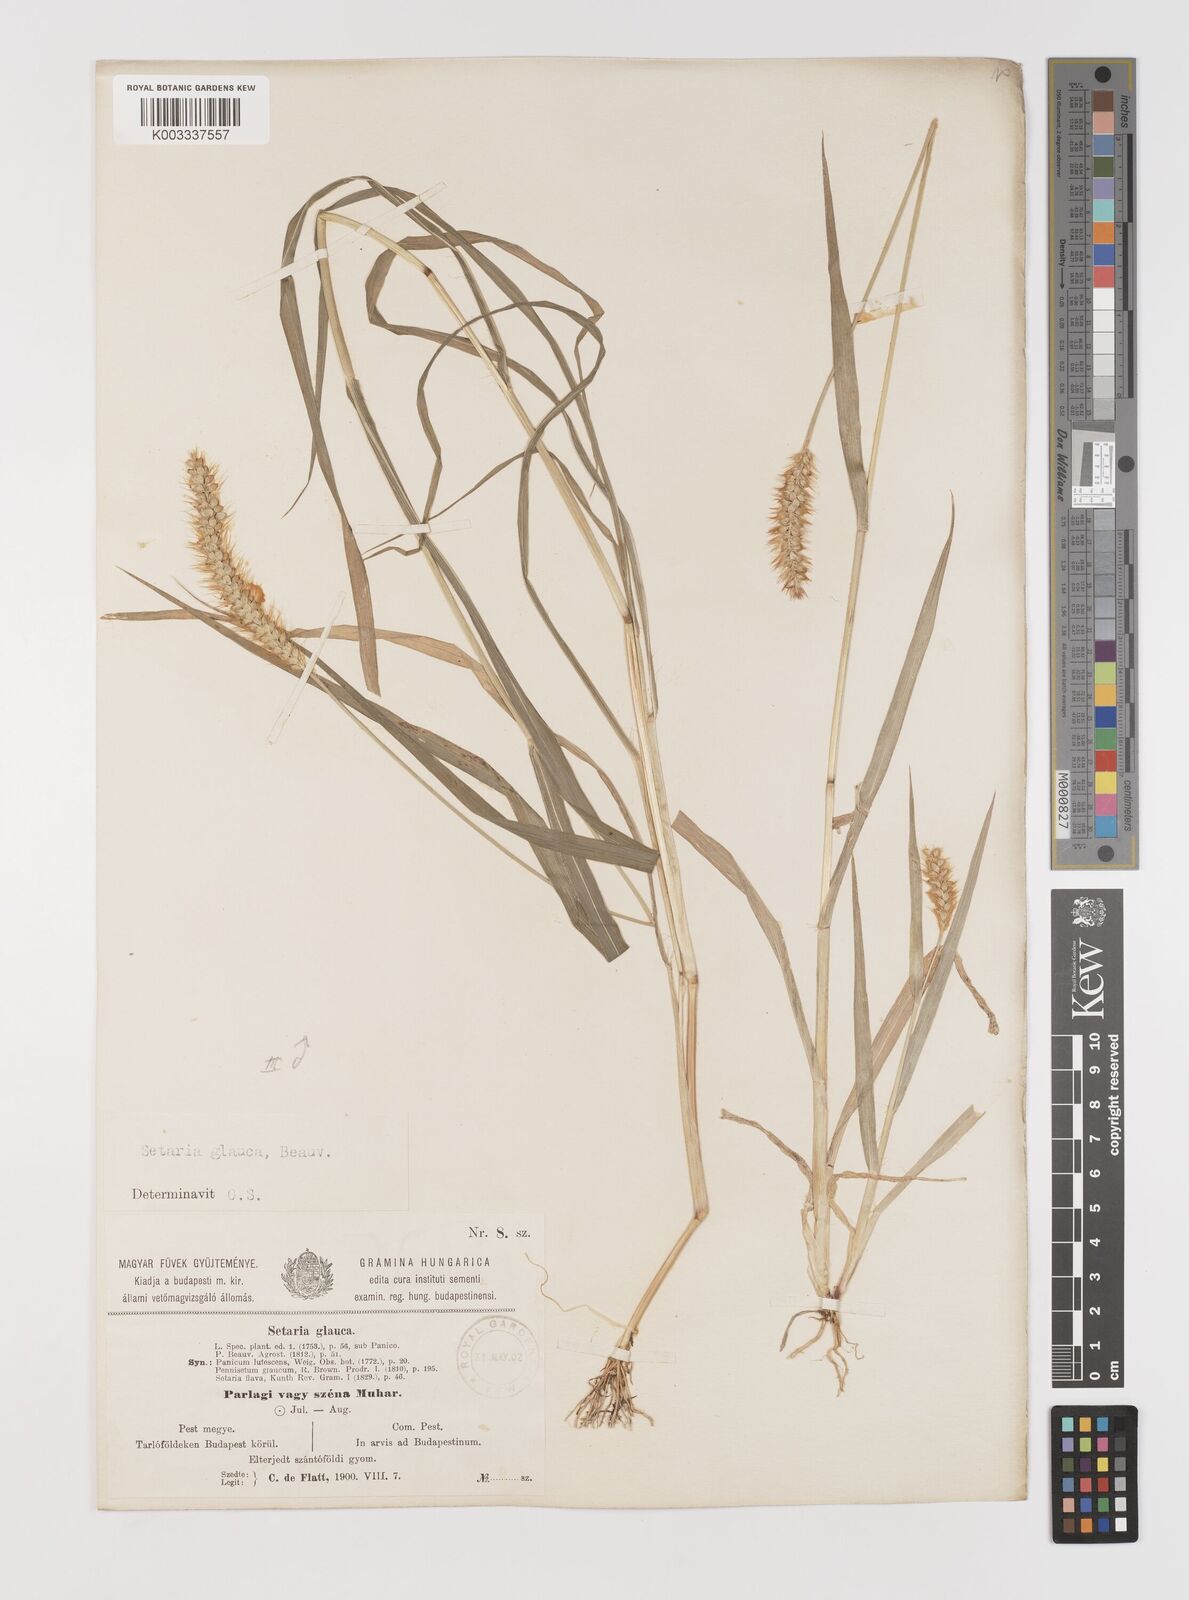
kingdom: Plantae
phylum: Tracheophyta
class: Liliopsida
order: Poales
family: Poaceae
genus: Setaria
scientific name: Setaria pumila
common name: Yellow bristle-grass
